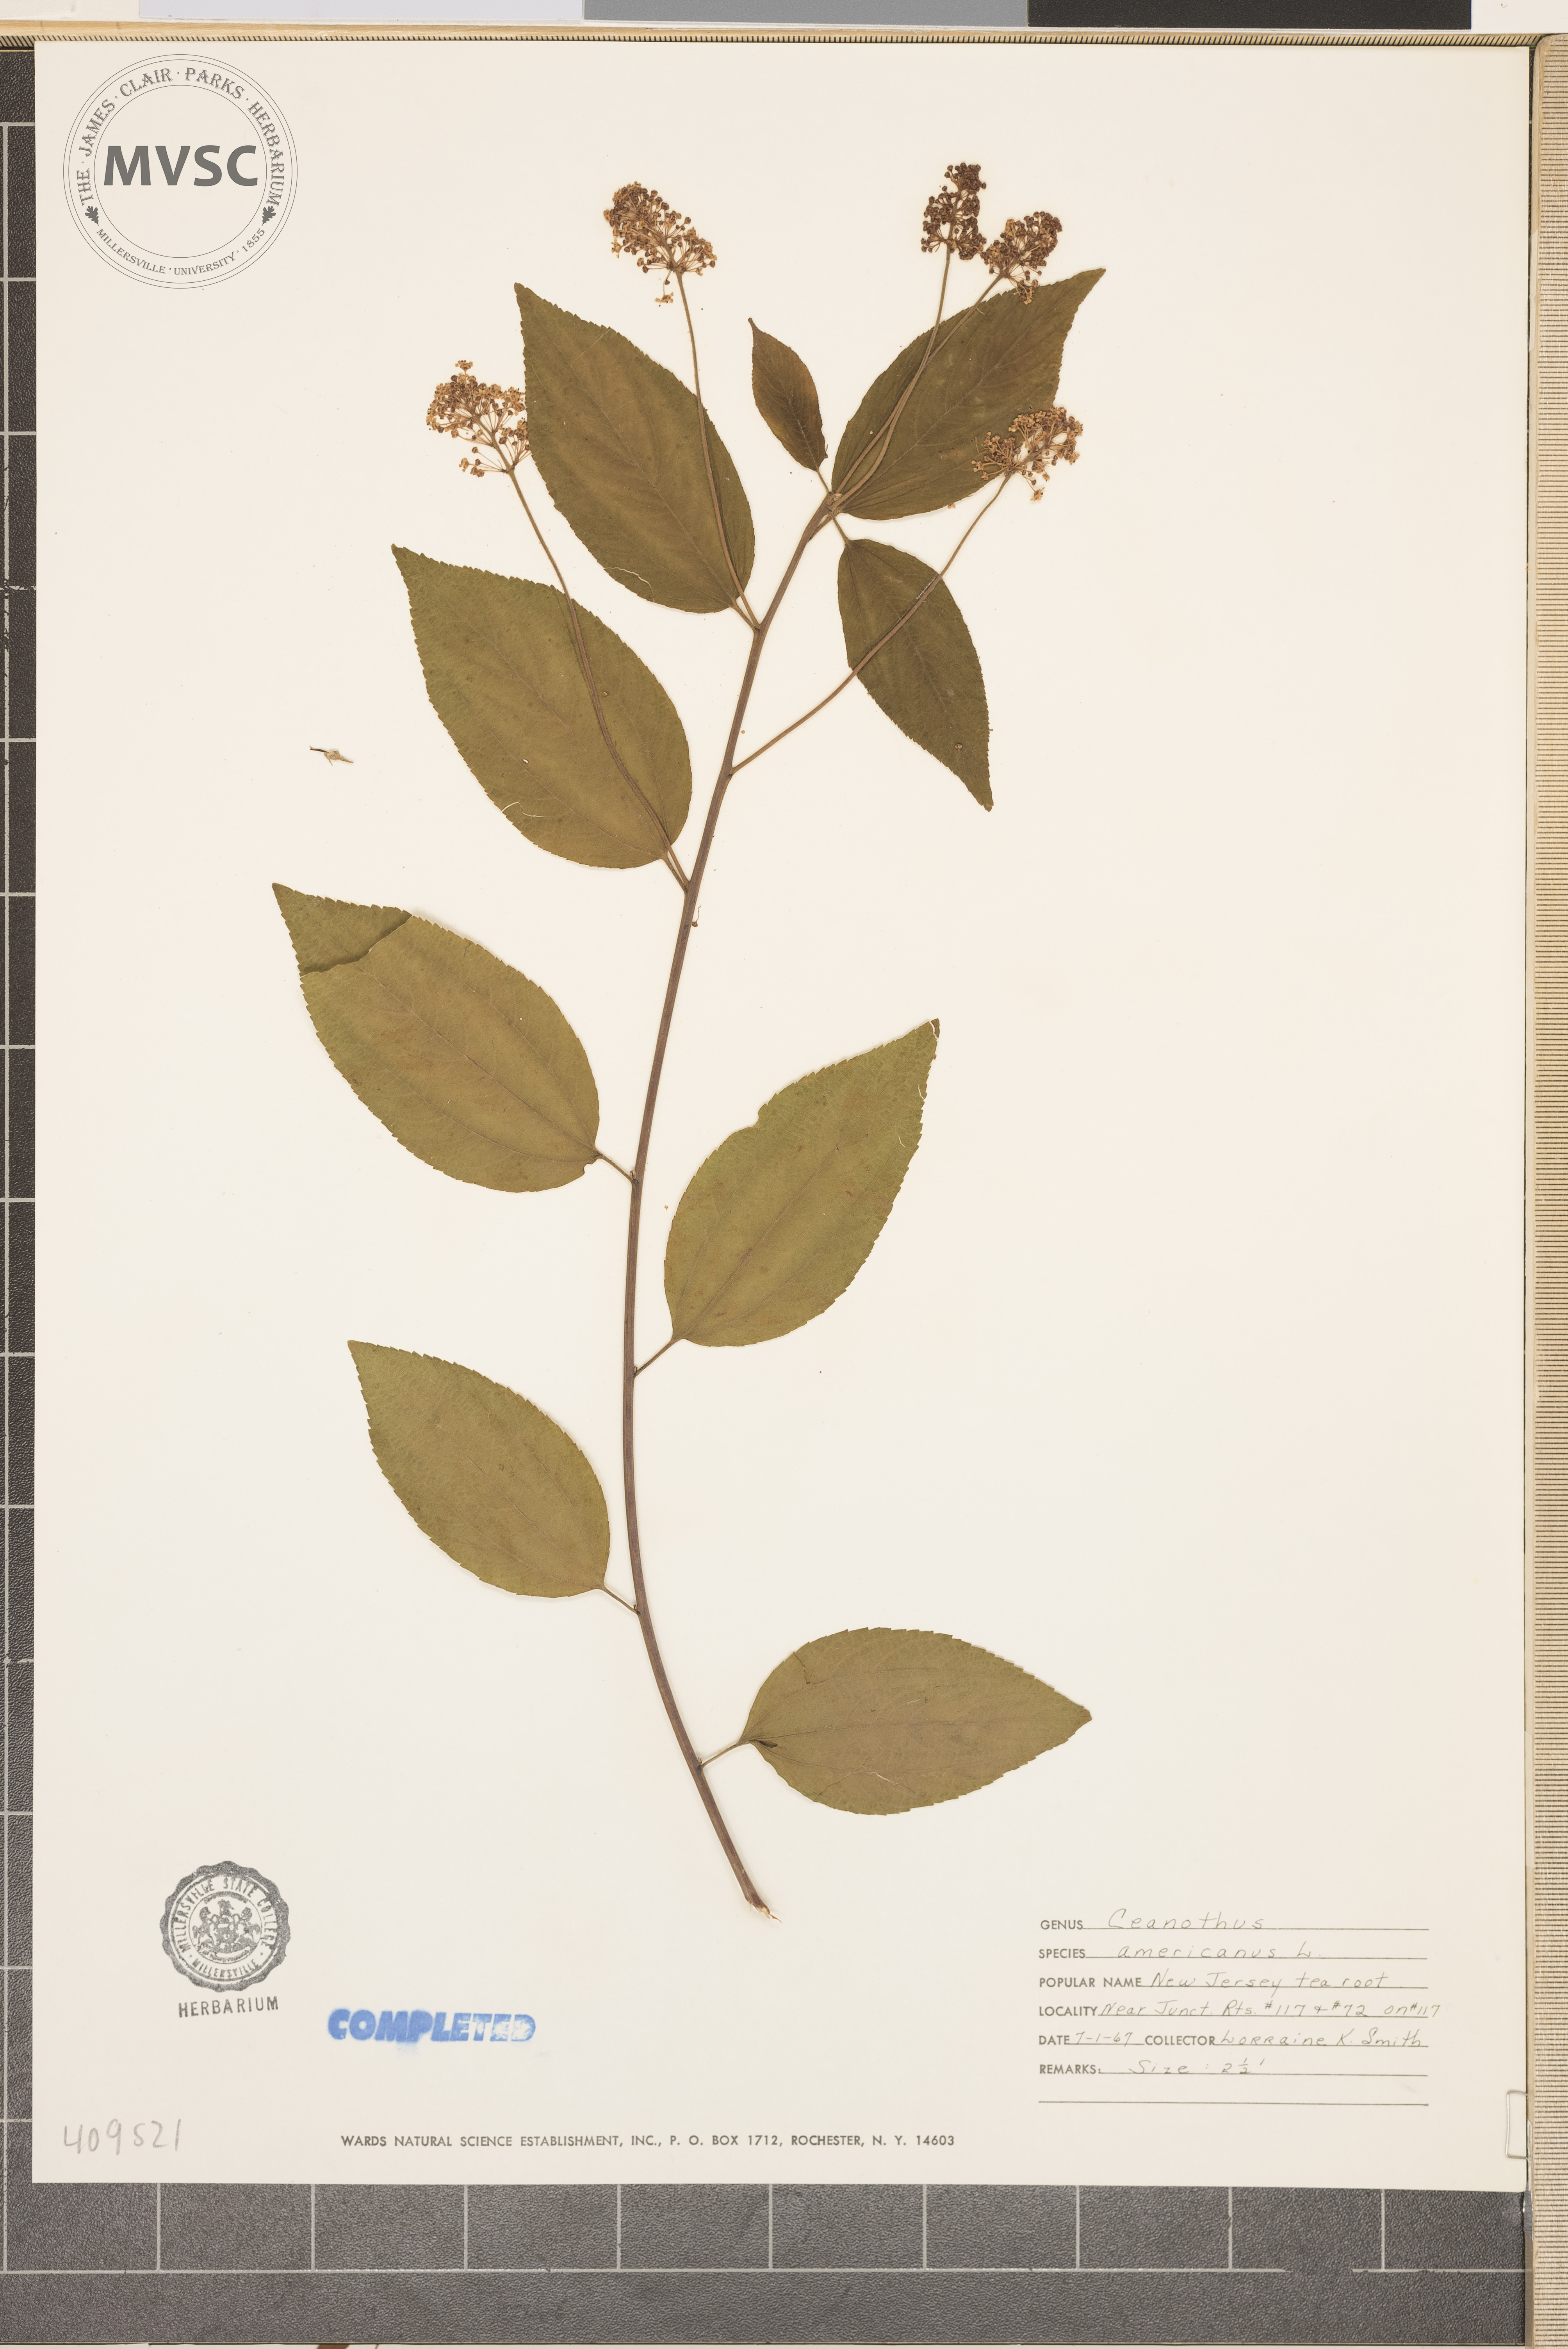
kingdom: Plantae
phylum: Tracheophyta
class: Magnoliopsida
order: Rosales
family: Rhamnaceae
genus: Ceanothus
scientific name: Ceanothus americanus
